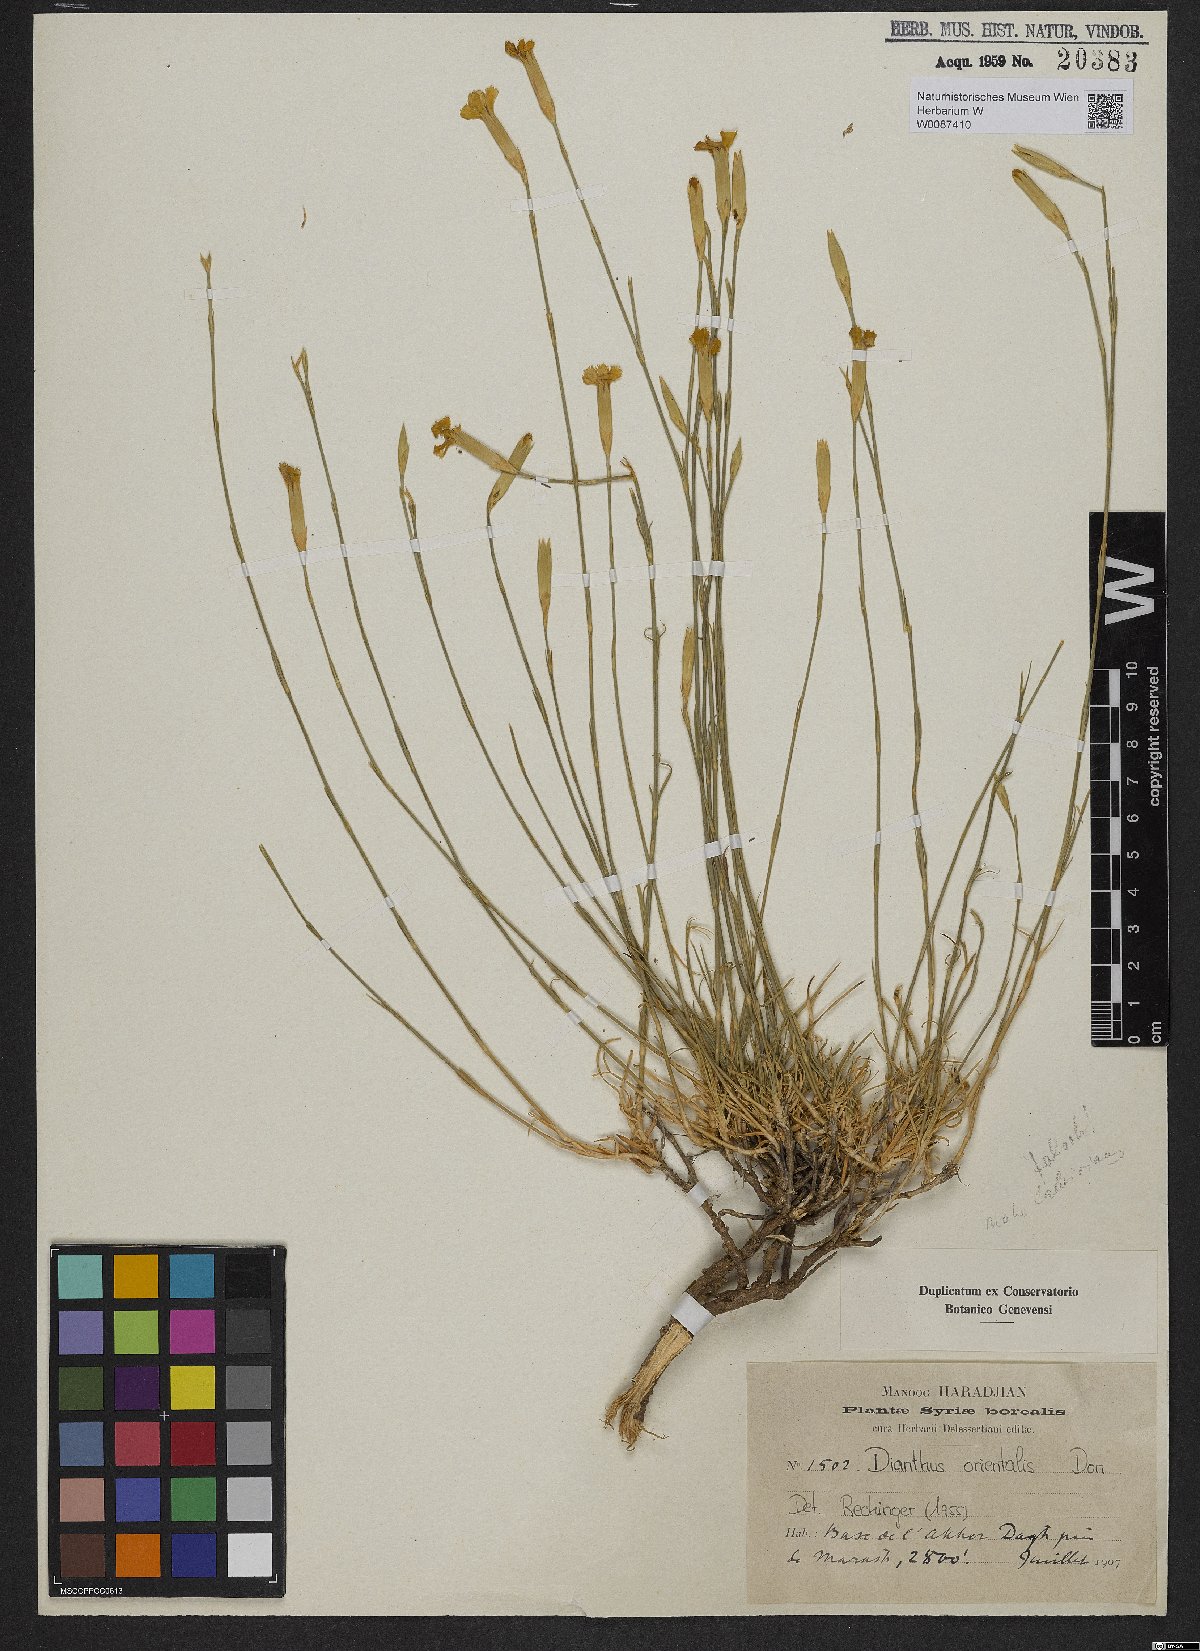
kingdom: Plantae
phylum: Tracheophyta
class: Magnoliopsida
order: Caryophyllales
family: Caryophyllaceae
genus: Dianthus
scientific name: Dianthus
